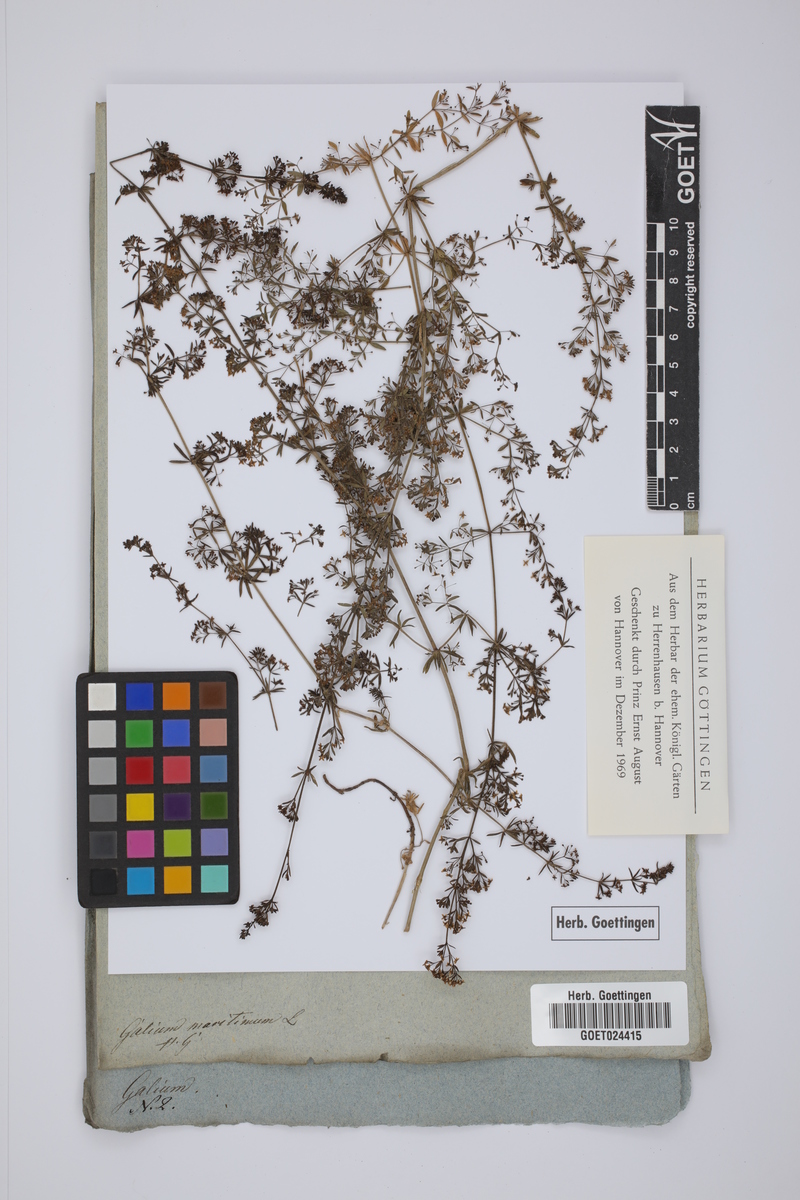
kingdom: Plantae
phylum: Tracheophyta
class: Magnoliopsida
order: Gentianales
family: Rubiaceae
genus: Galium
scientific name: Galium maritimum
